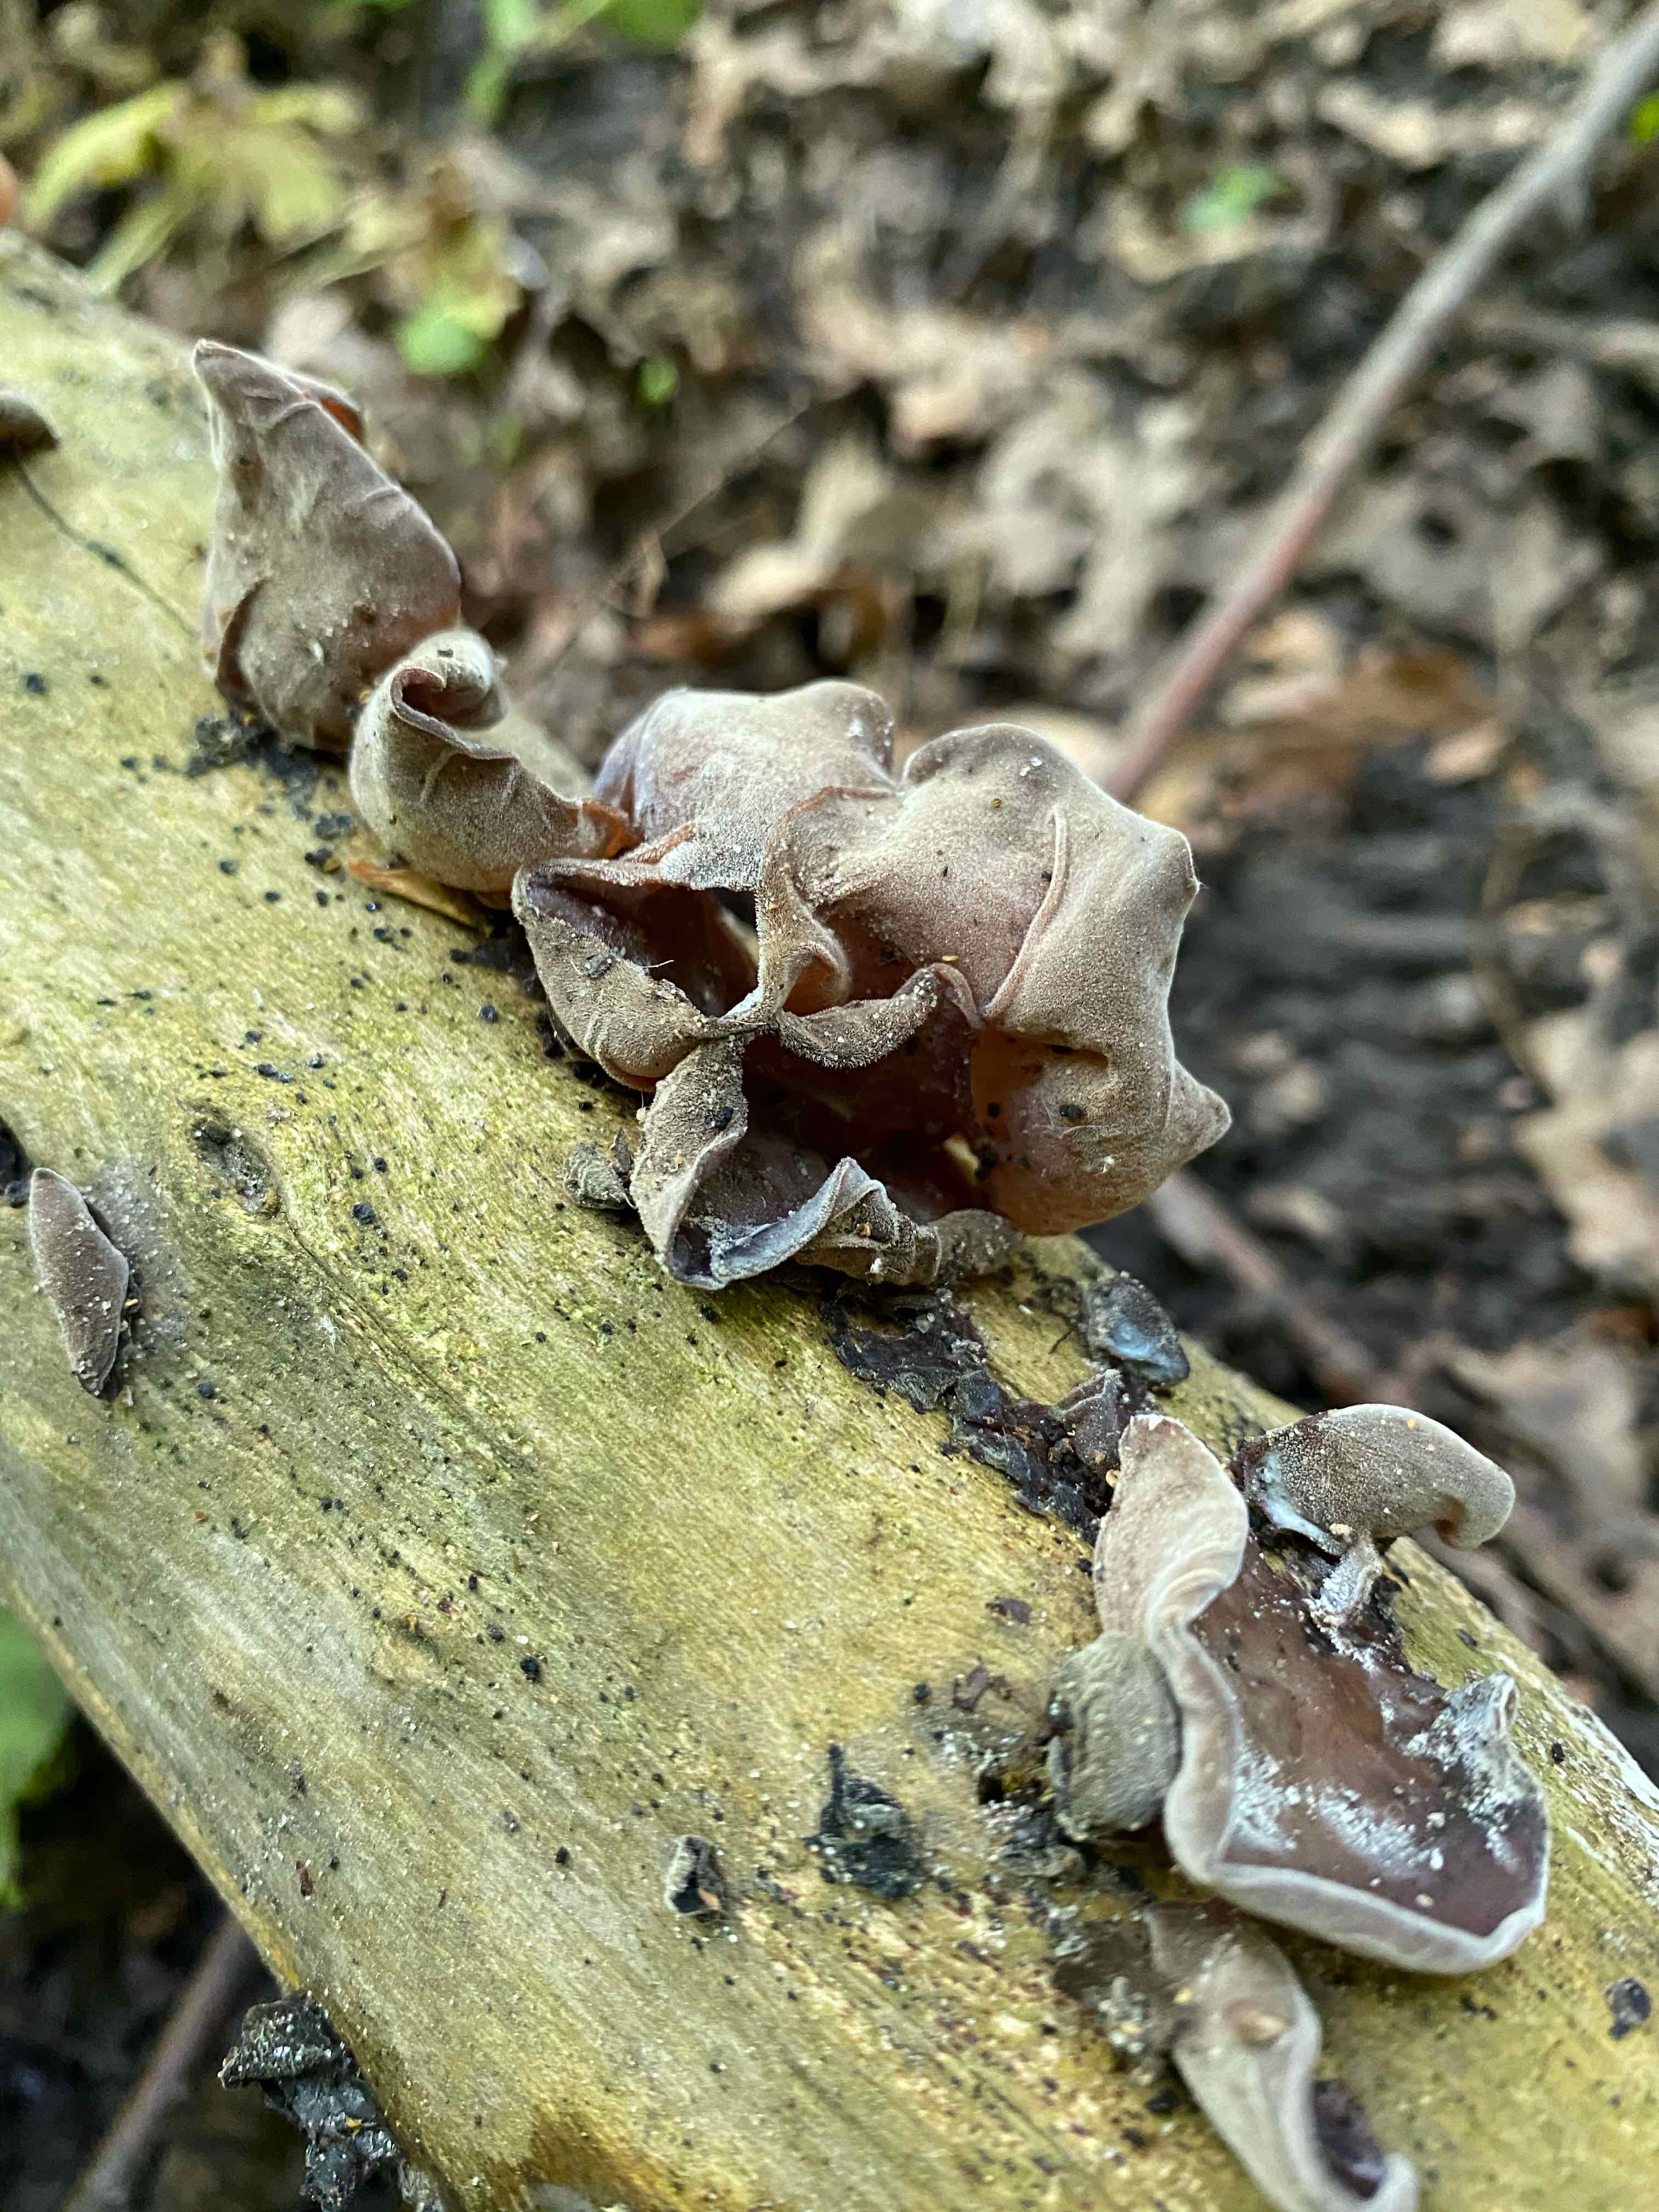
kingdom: Fungi
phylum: Basidiomycota
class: Agaricomycetes
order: Auriculariales
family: Auriculariaceae
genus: Auricularia
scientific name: Auricularia auricula-judae
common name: almindelig judasøre
